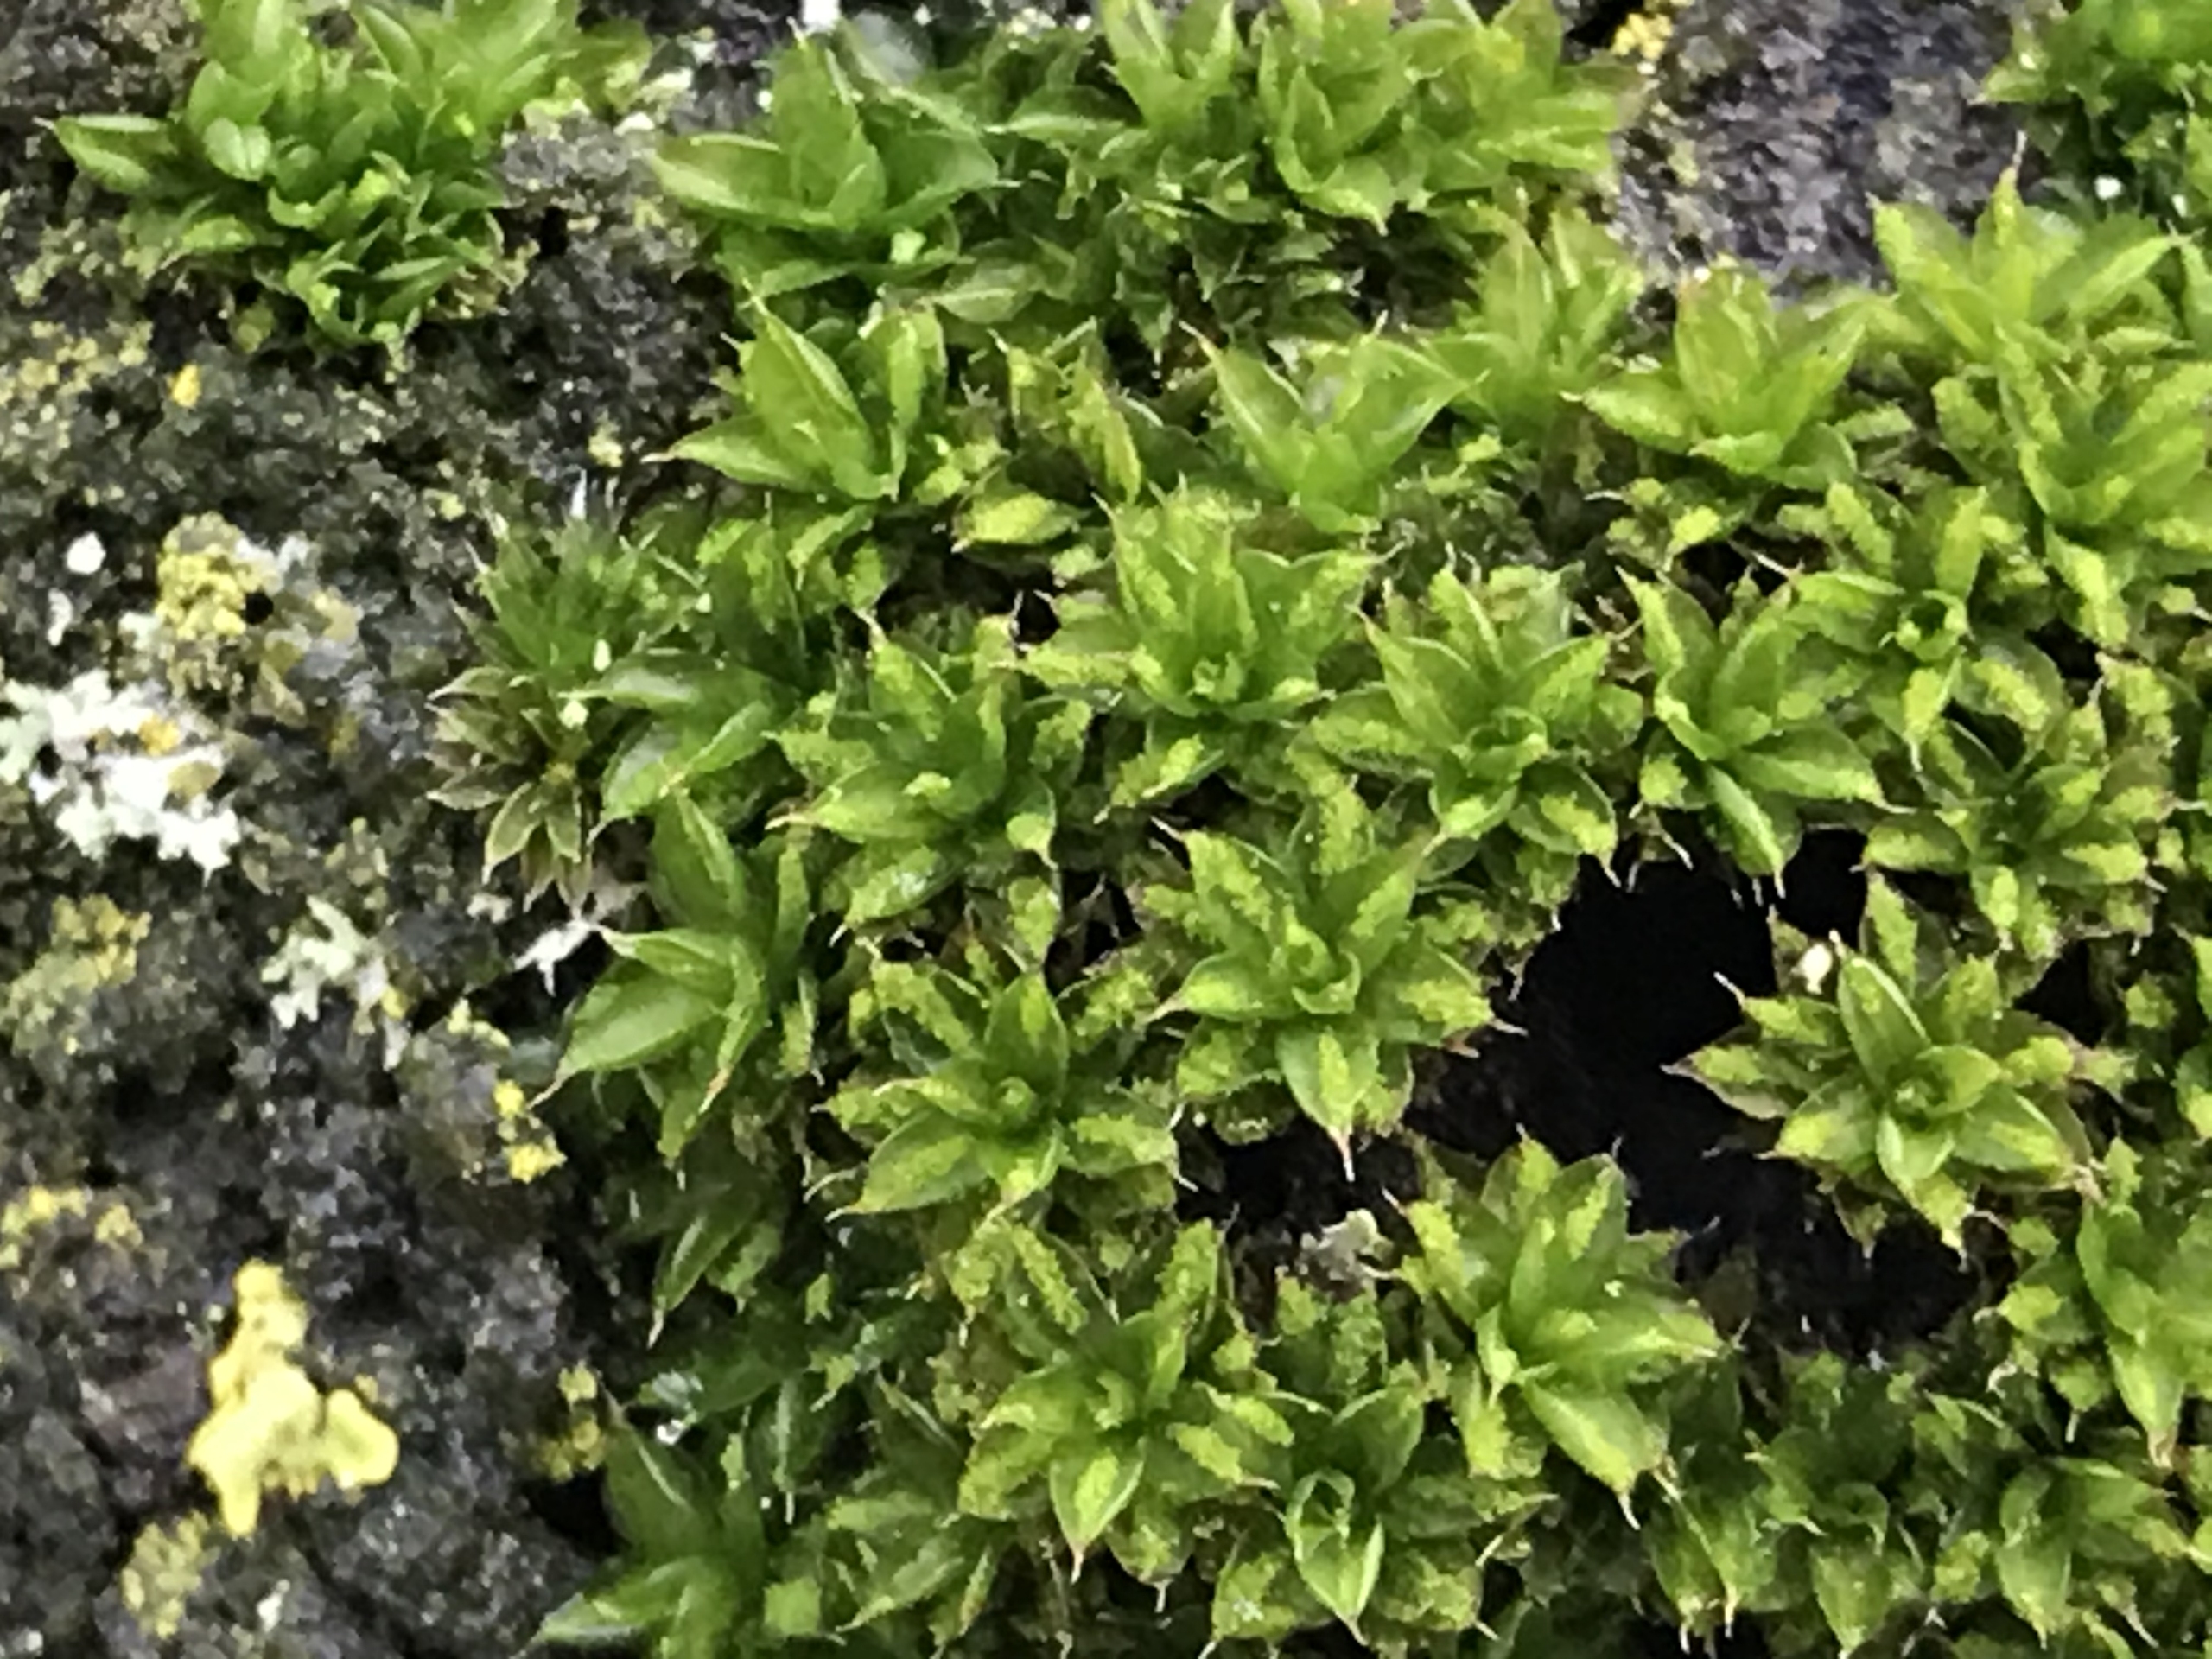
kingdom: Plantae
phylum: Bryophyta
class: Bryopsida
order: Pottiales
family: Pottiaceae
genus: Syntrichia
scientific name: Syntrichia papillosa
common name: Bark-hårstjerne
